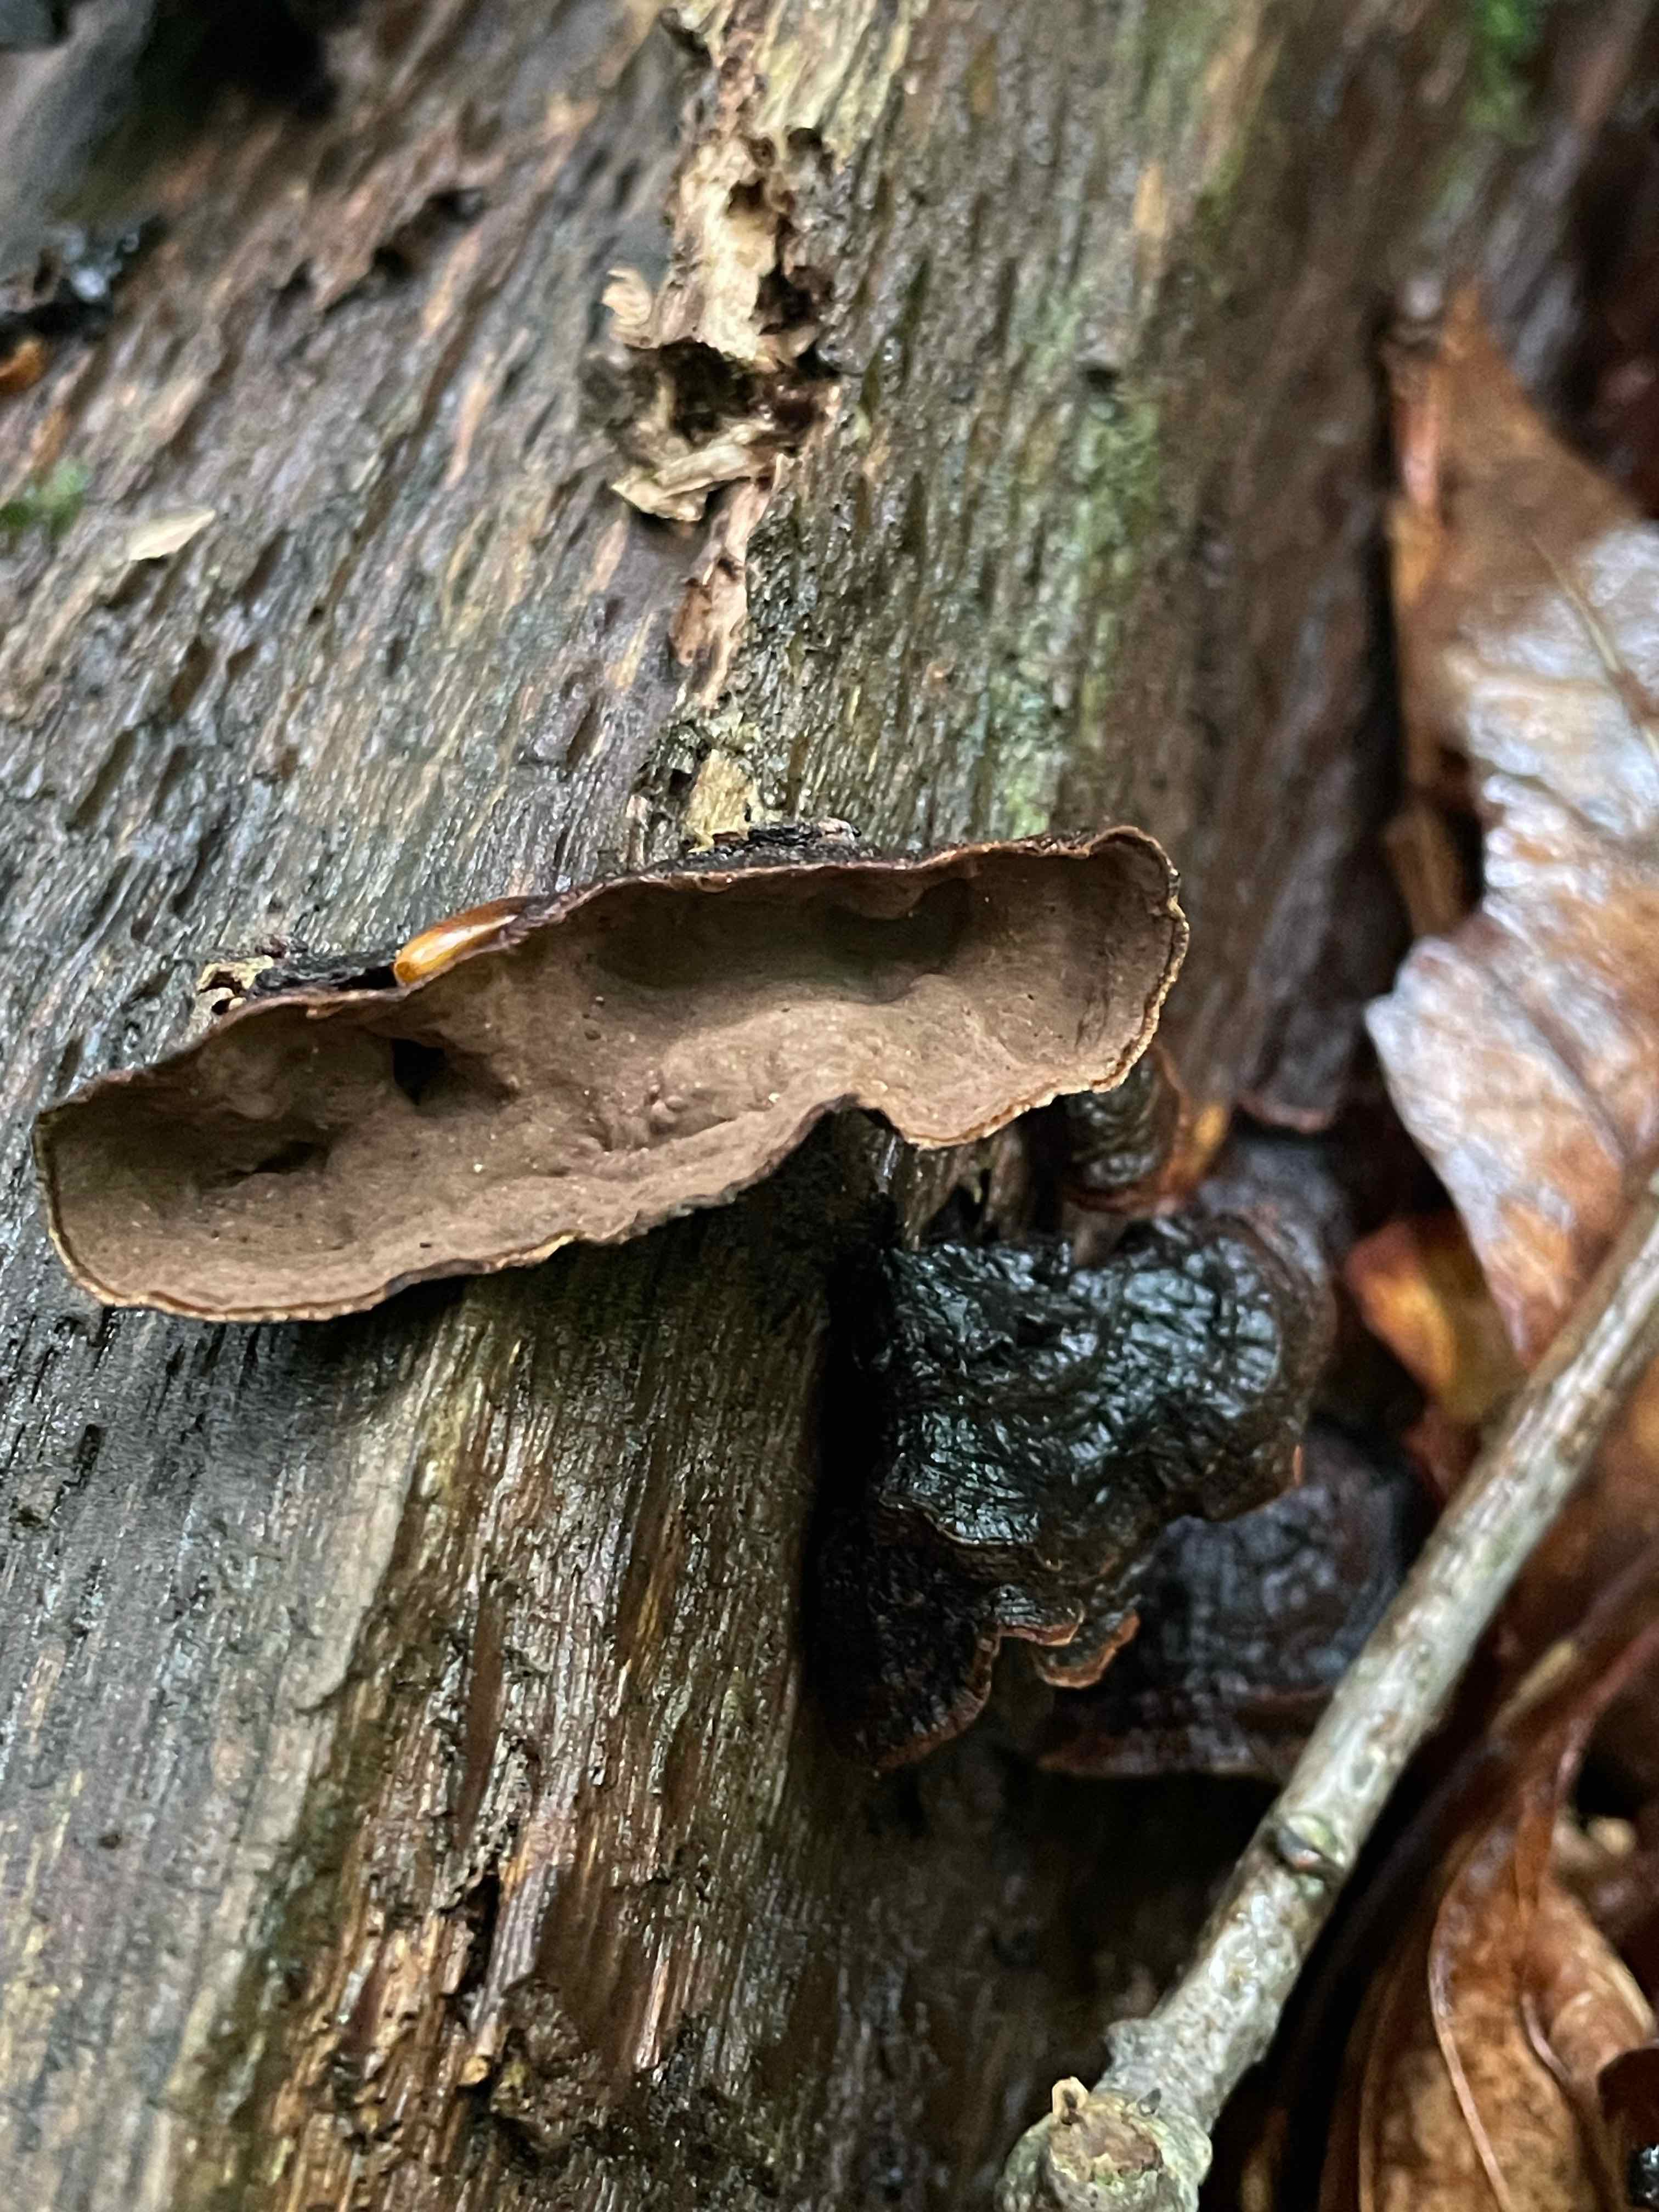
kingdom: Fungi
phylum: Basidiomycota
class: Agaricomycetes
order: Hymenochaetales
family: Hymenochaetaceae
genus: Hymenochaete
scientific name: Hymenochaete rubiginosa
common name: stiv ruslædersvamp
